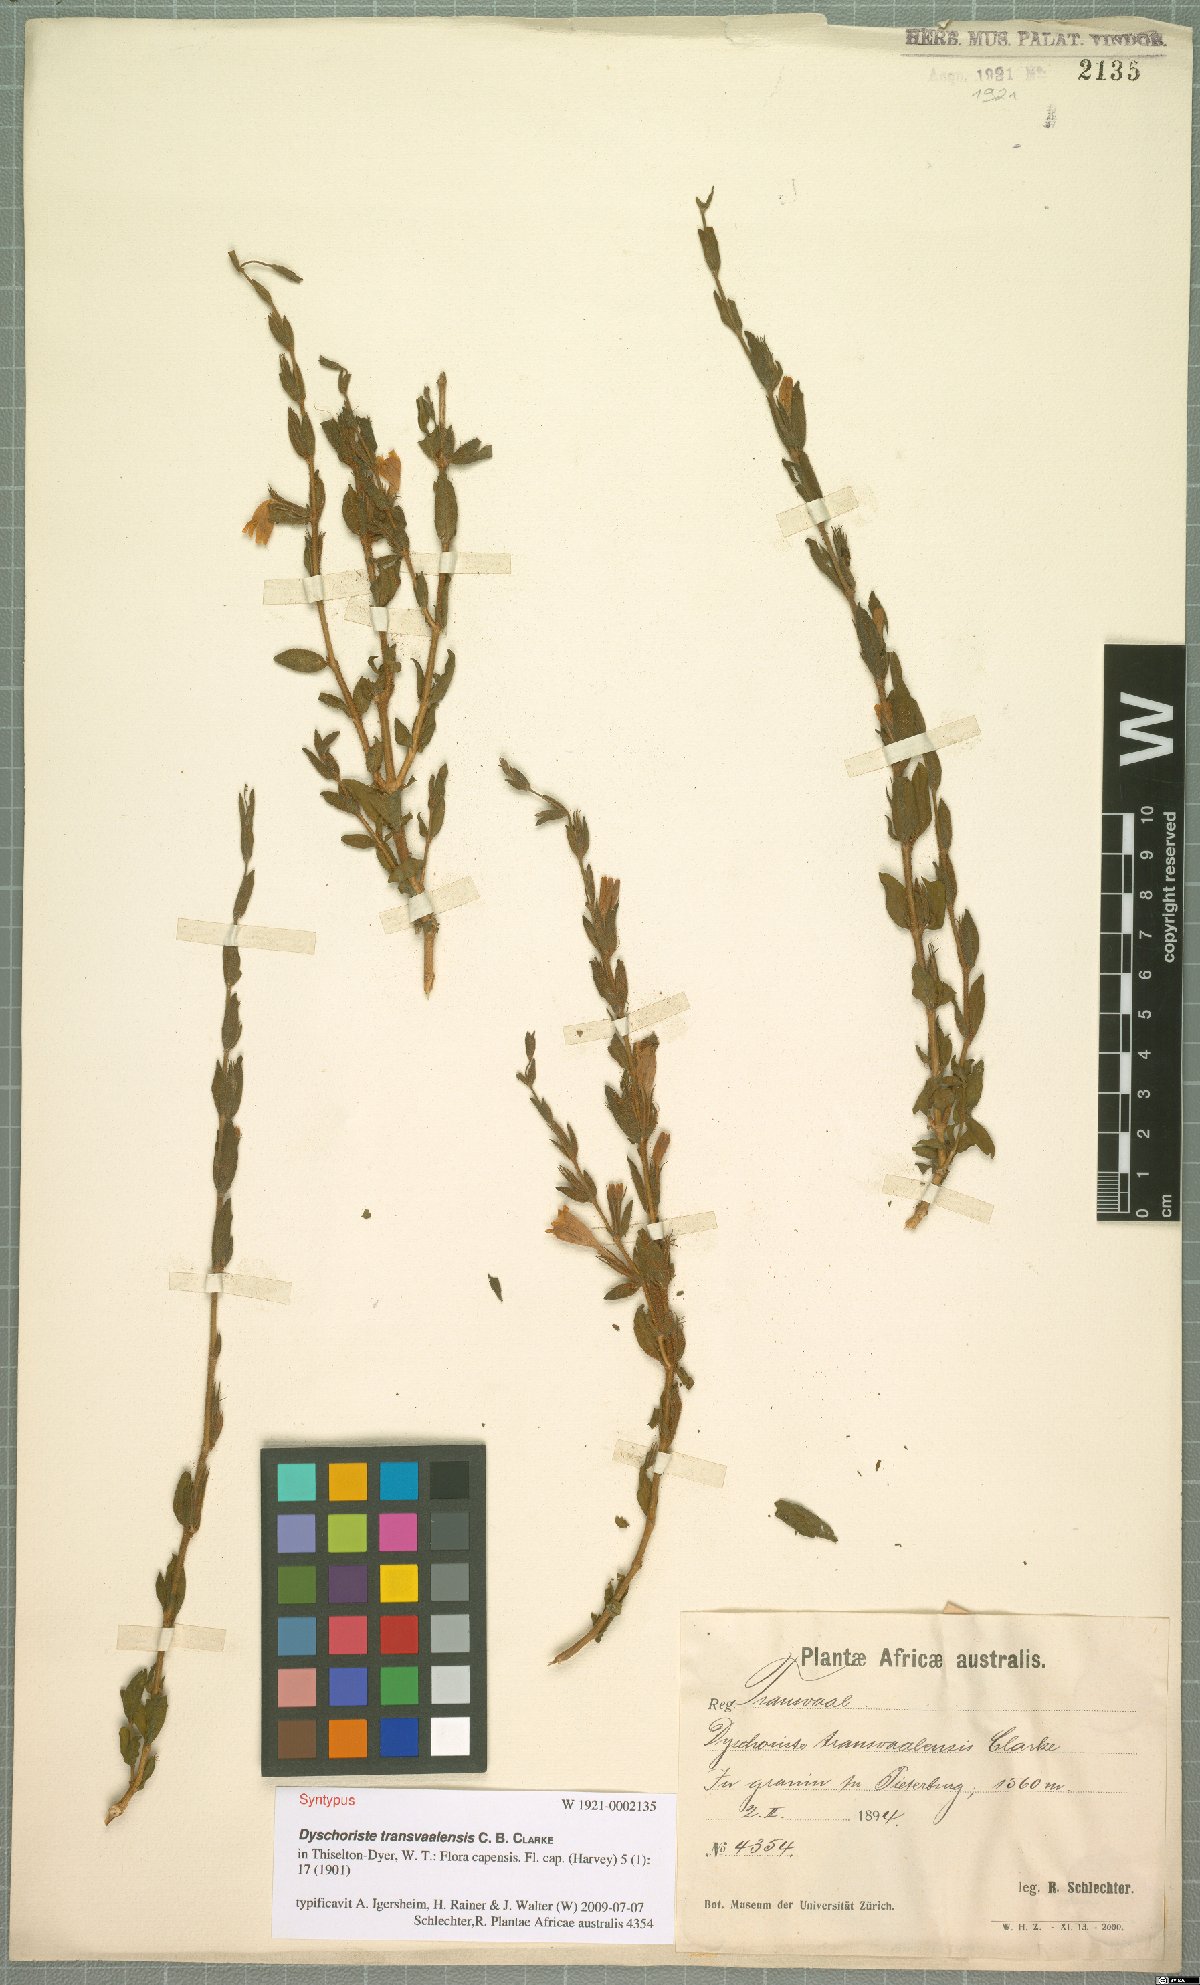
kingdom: Plantae
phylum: Tracheophyta
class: Magnoliopsida
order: Lamiales
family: Acanthaceae
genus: Dyschoriste
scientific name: Dyschoriste capricornis
